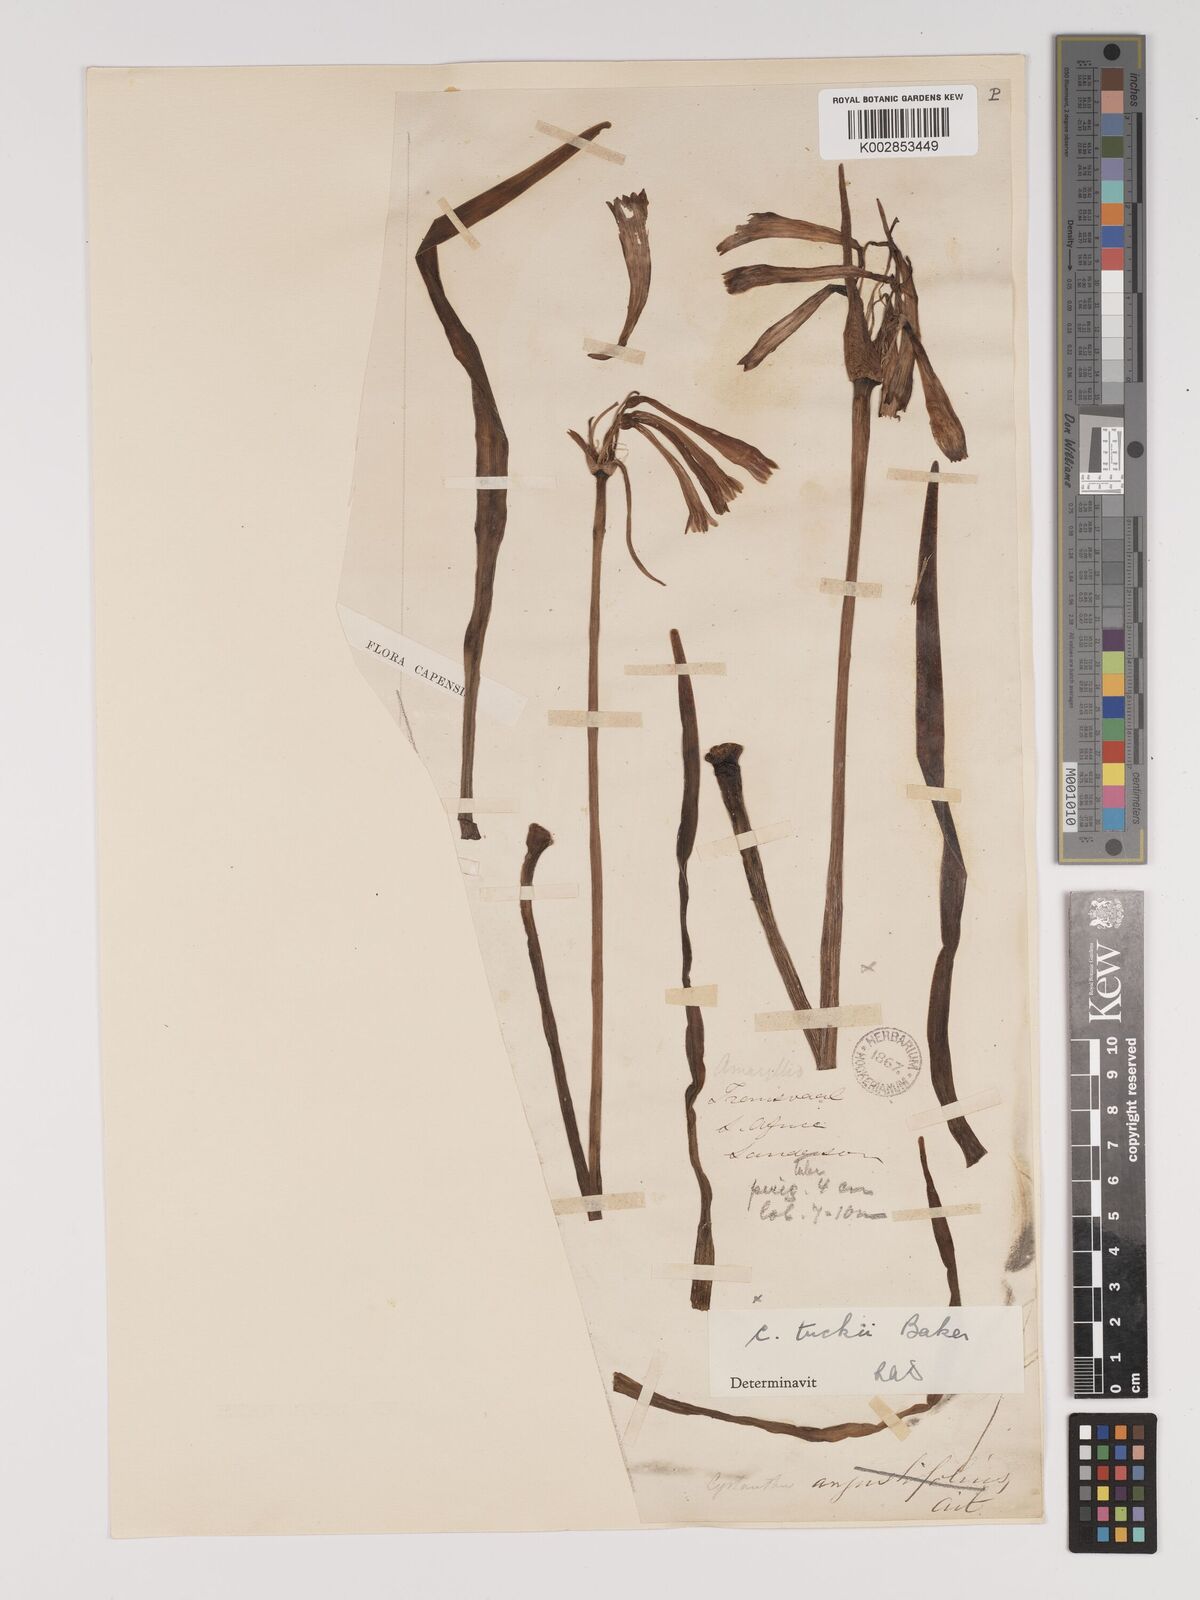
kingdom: Plantae
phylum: Tracheophyta
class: Liliopsida
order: Asparagales
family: Amaryllidaceae
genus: Cyrtanthus
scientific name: Cyrtanthus tuckii
